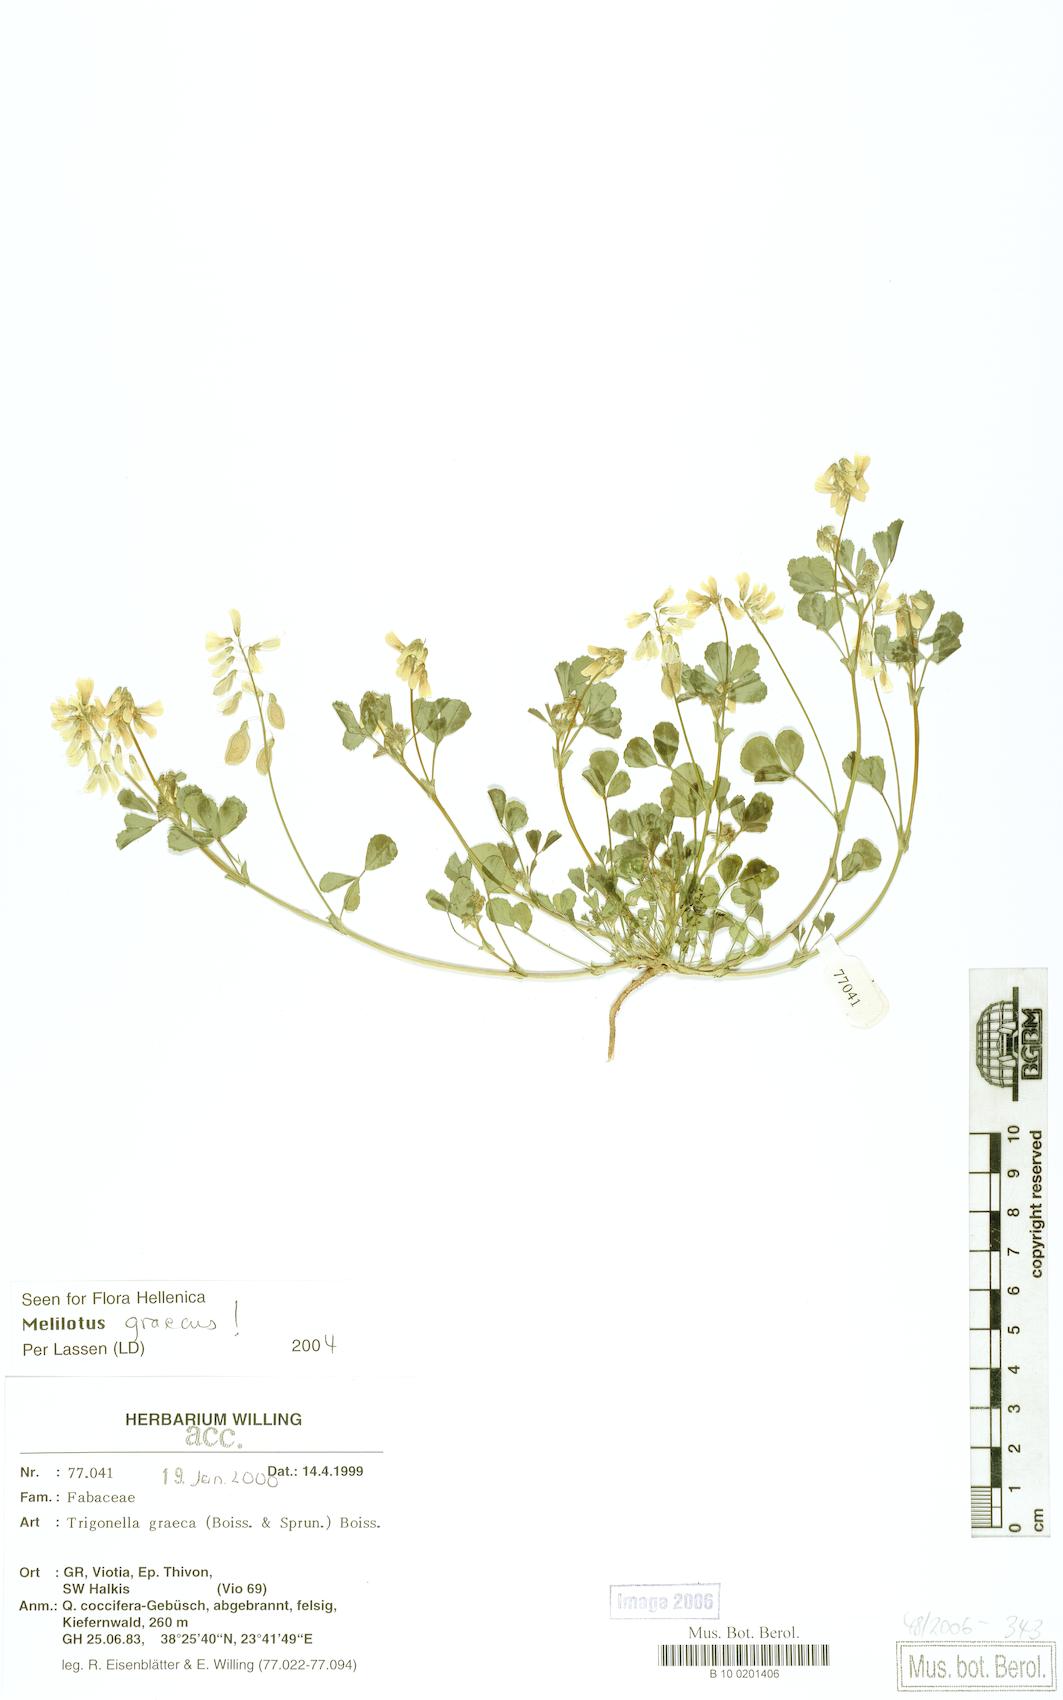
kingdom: Plantae
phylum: Tracheophyta
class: Magnoliopsida
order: Fabales
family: Fabaceae
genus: Trigonella
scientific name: Trigonella graeca
